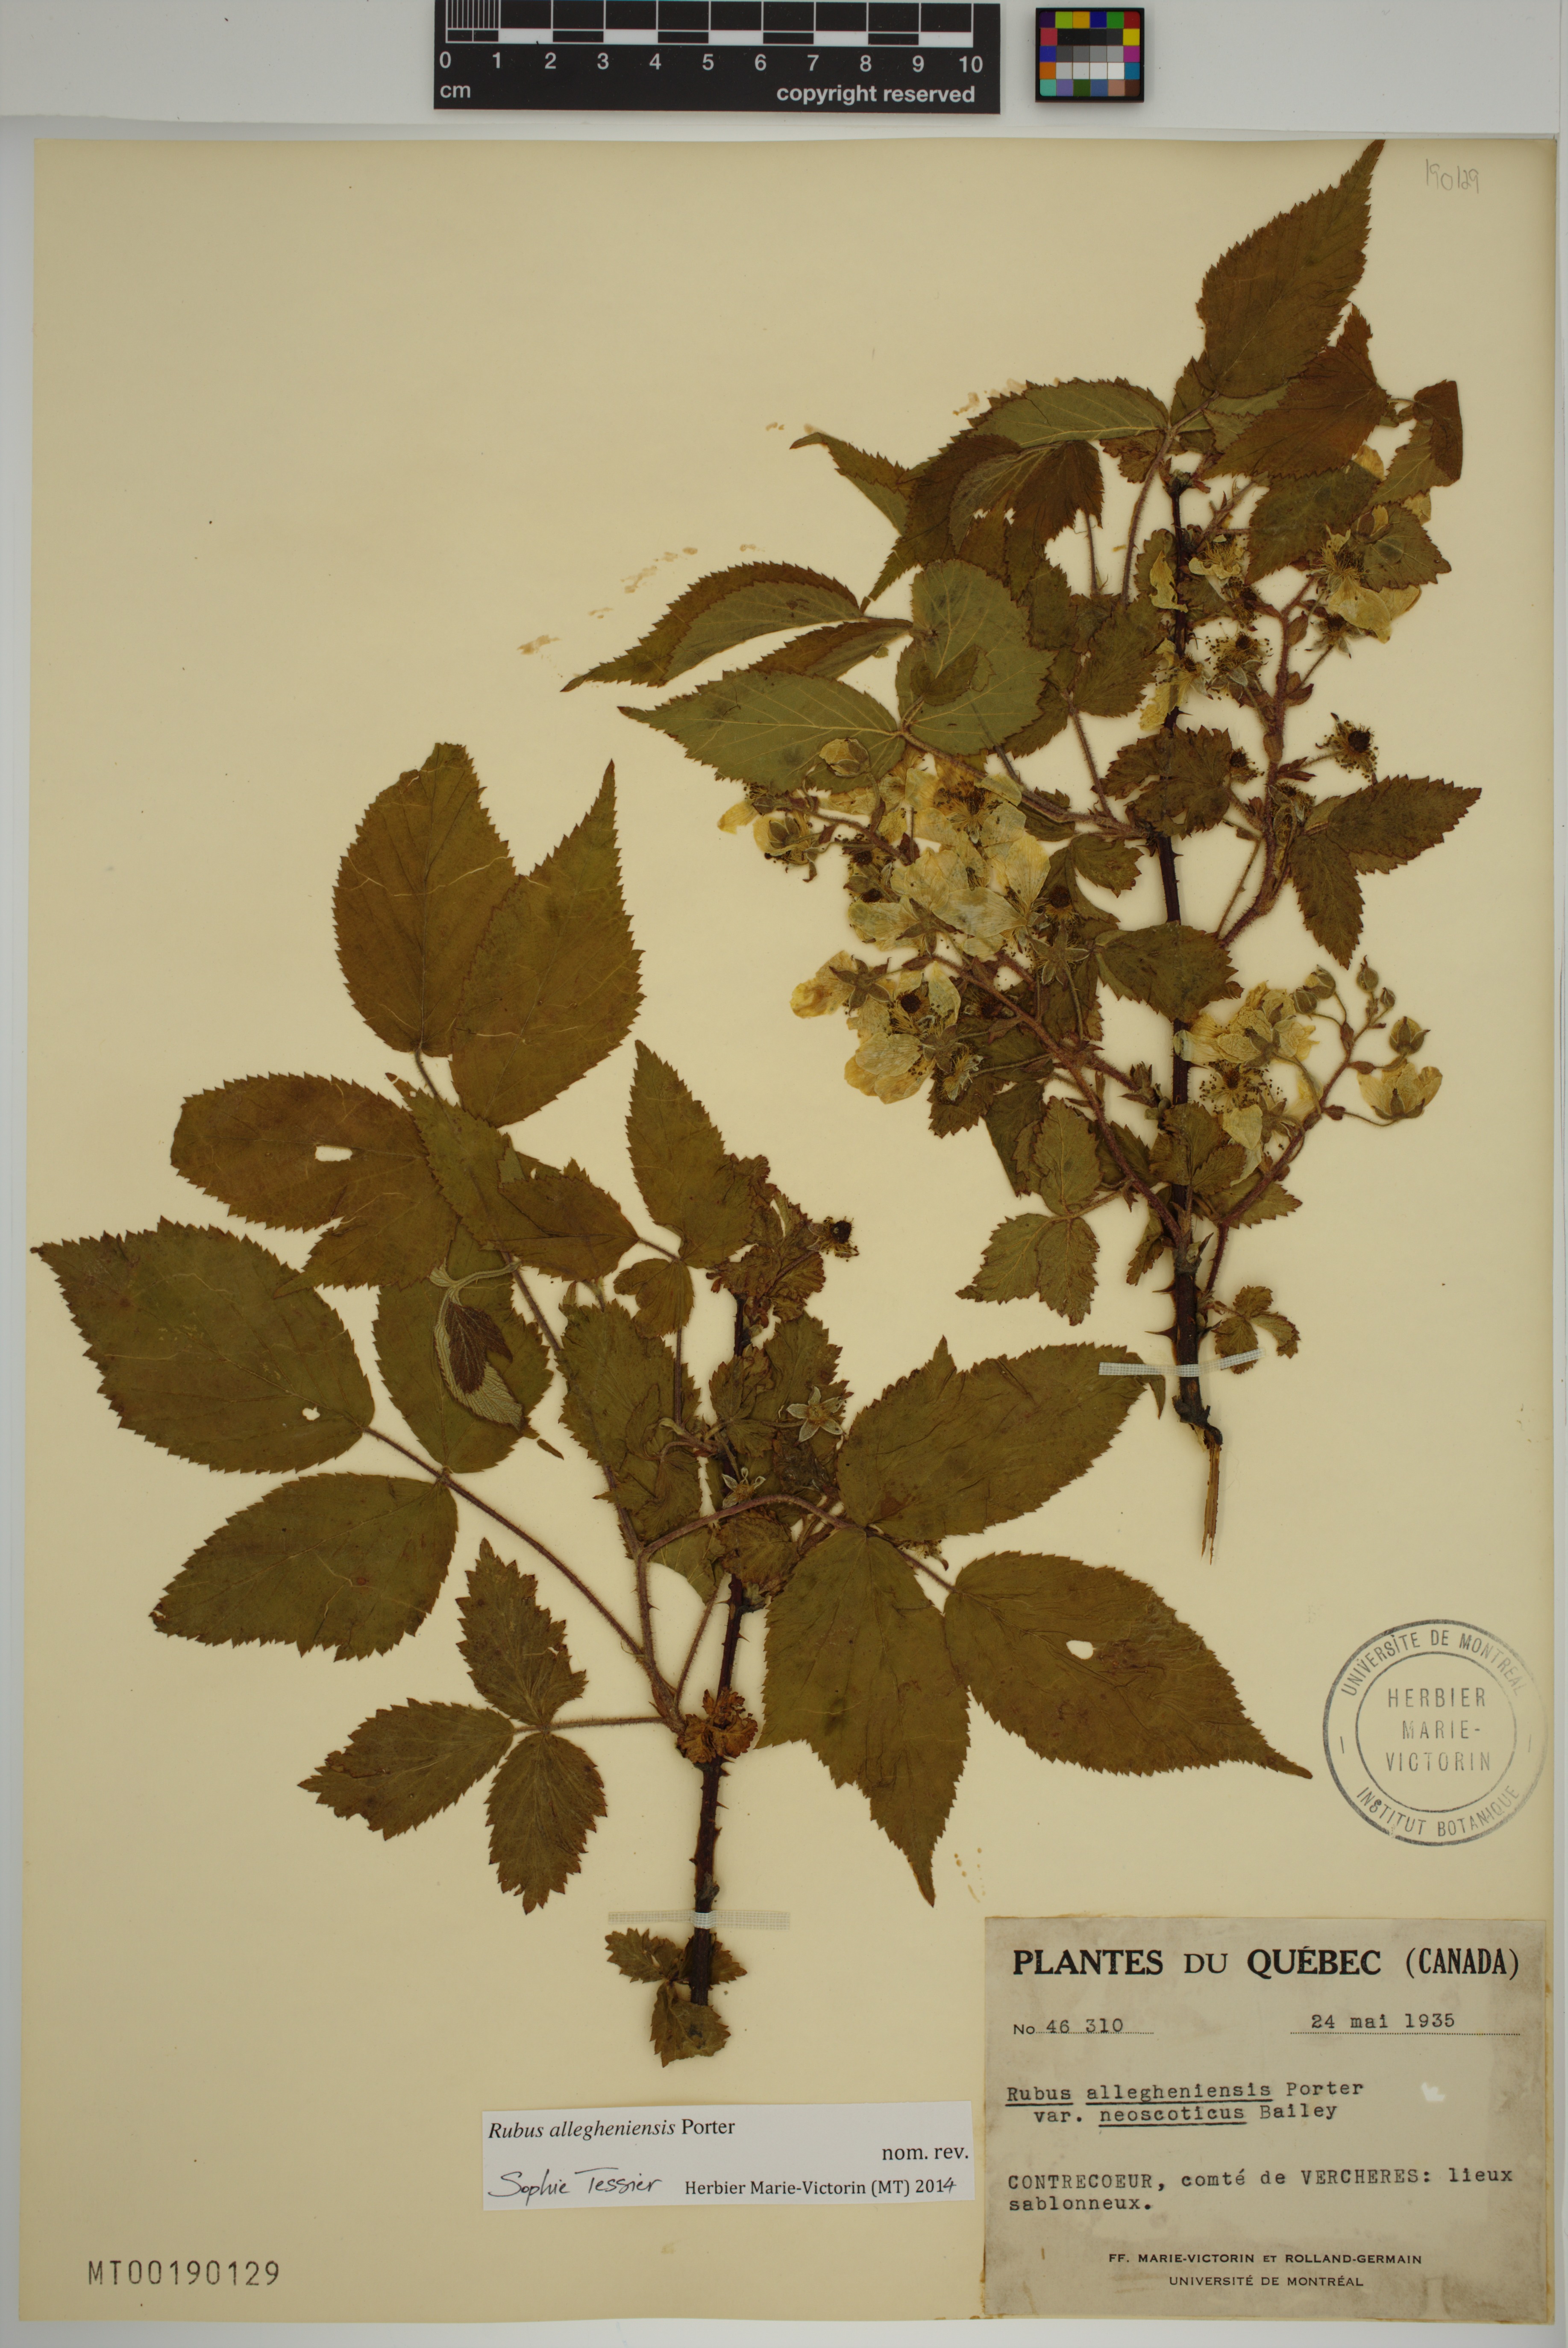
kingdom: Plantae
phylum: Tracheophyta
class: Magnoliopsida
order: Rosales
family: Rosaceae
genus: Rubus
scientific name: Rubus allegheniensis
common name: Allegheny blackberry
